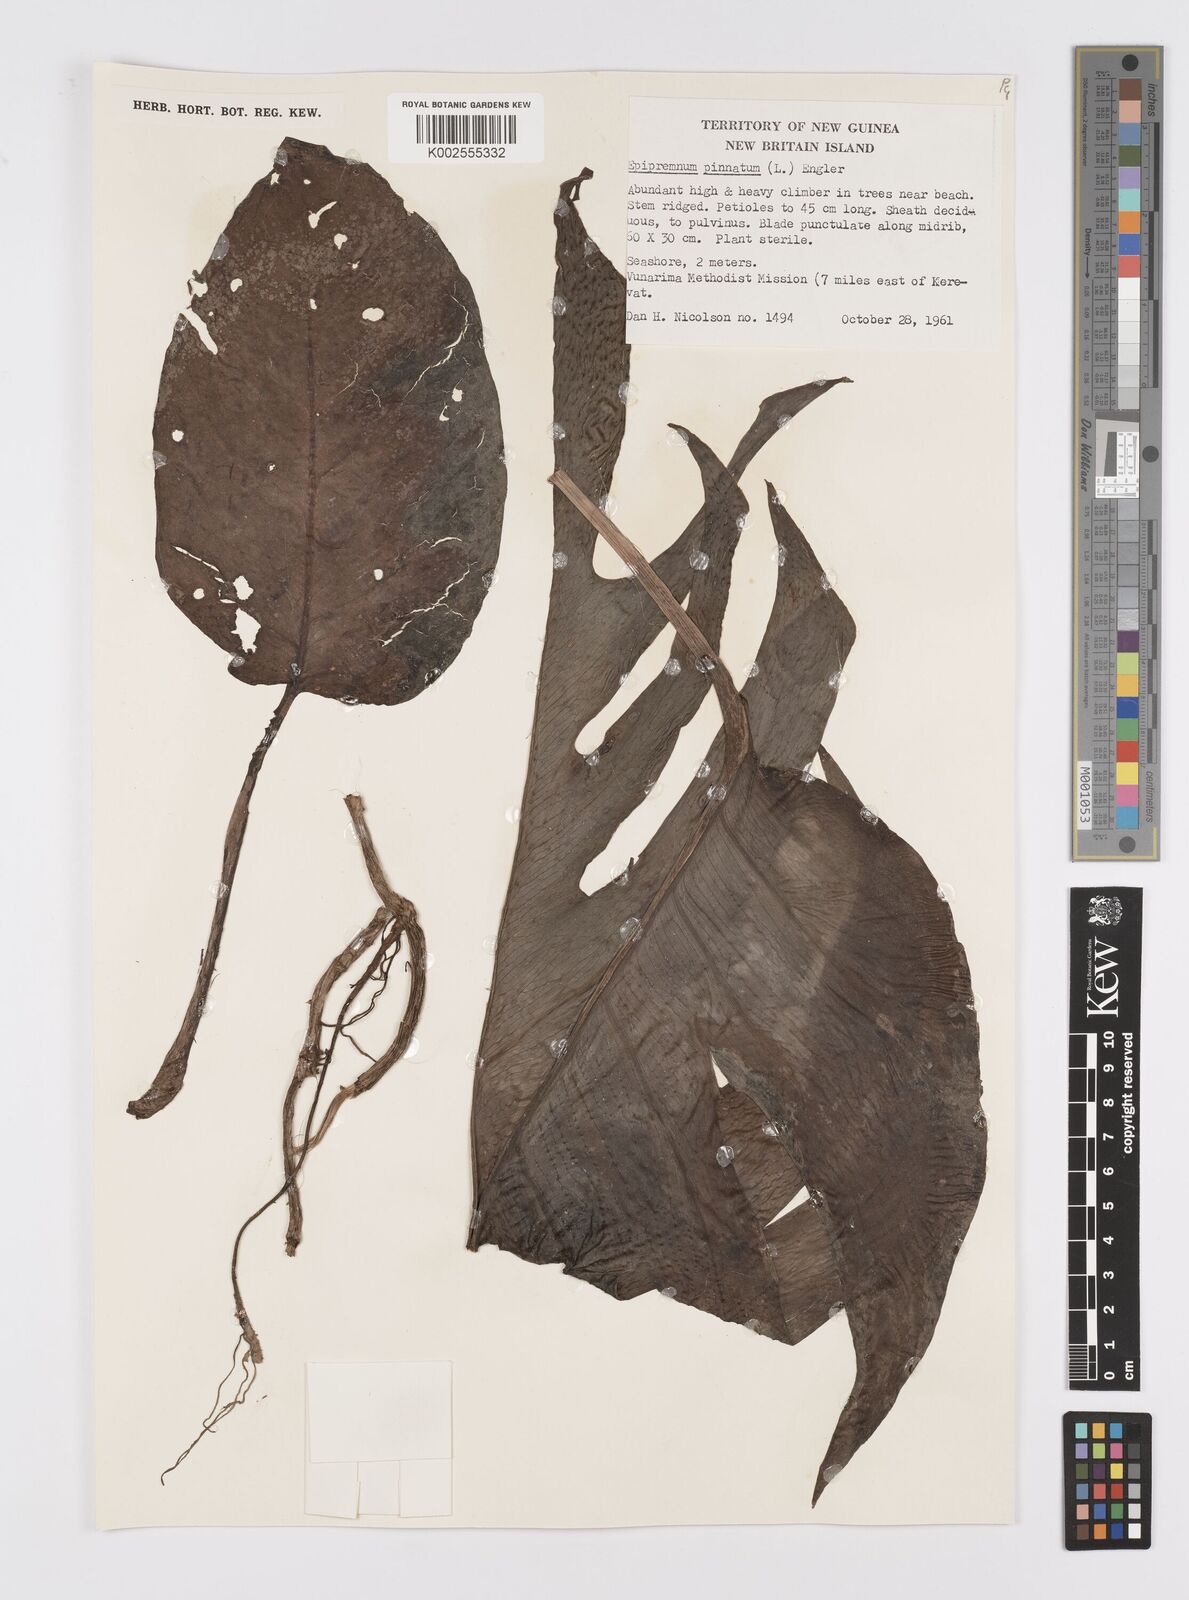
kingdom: Plantae
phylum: Tracheophyta
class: Liliopsida
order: Alismatales
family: Araceae
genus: Epipremnum
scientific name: Epipremnum pinnatum
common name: Centipede tongavine
